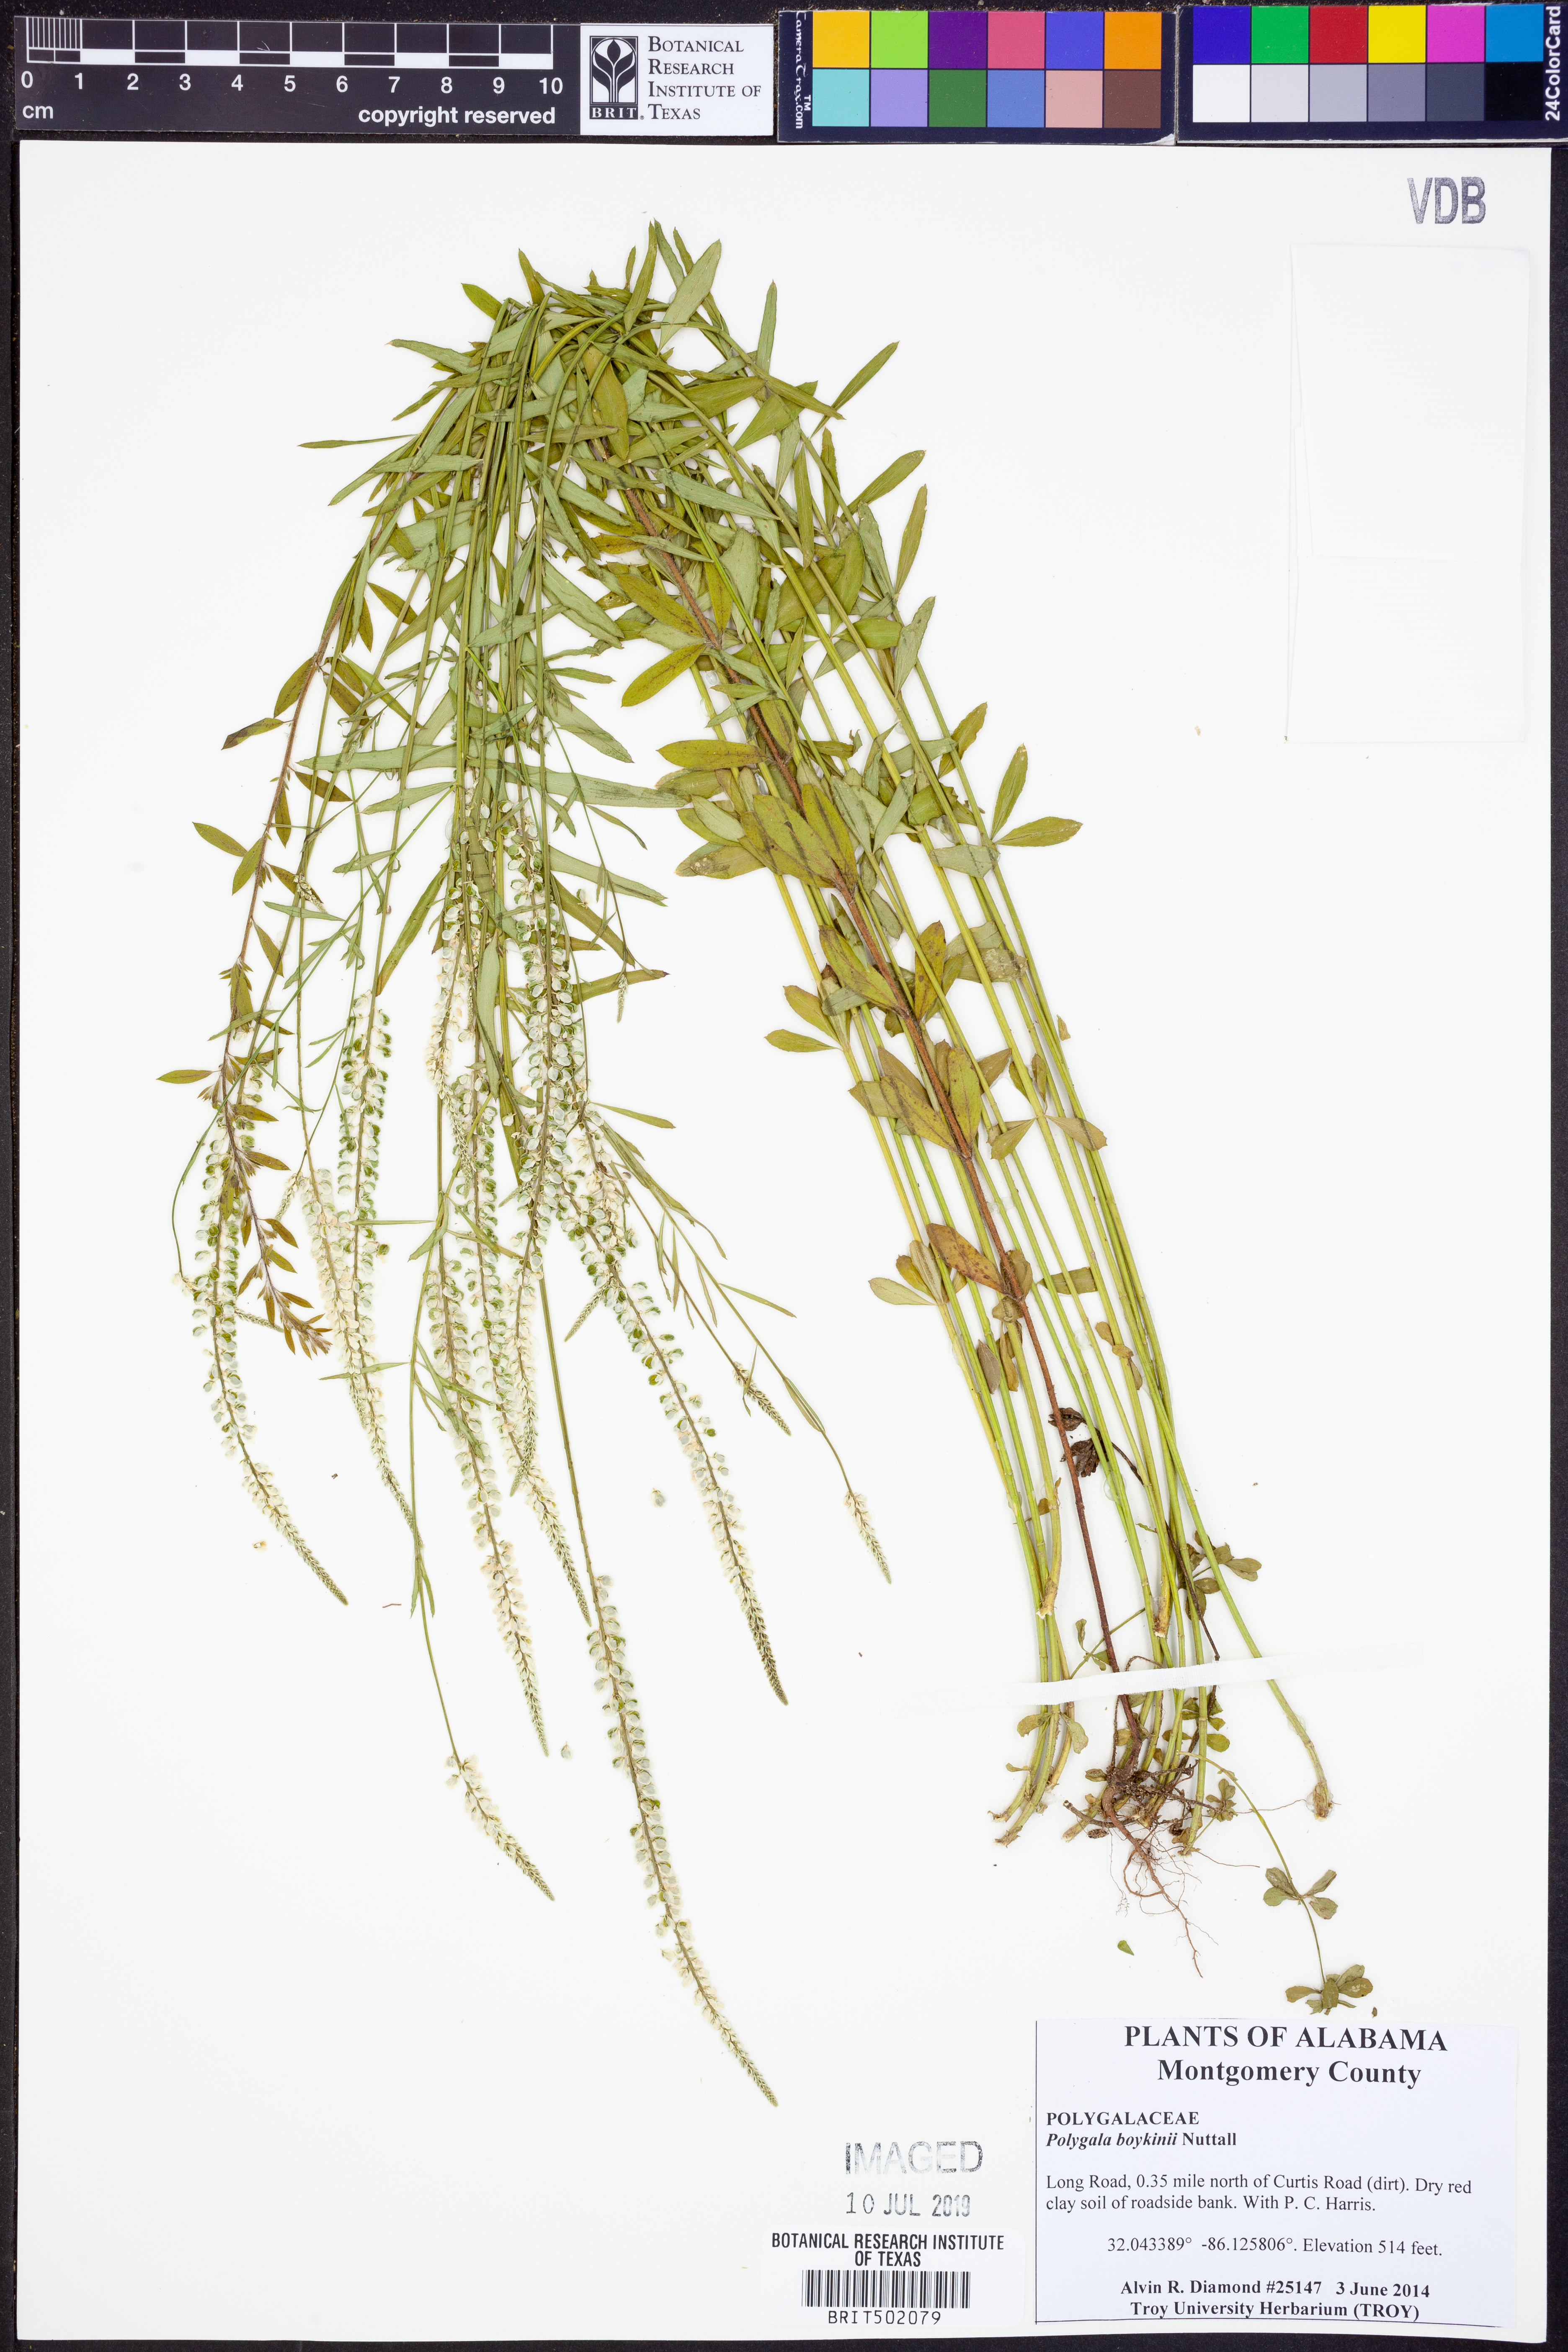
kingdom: Plantae
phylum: Tracheophyta
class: Magnoliopsida
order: Fabales
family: Polygalaceae
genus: Polygala
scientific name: Polygala boykinii
